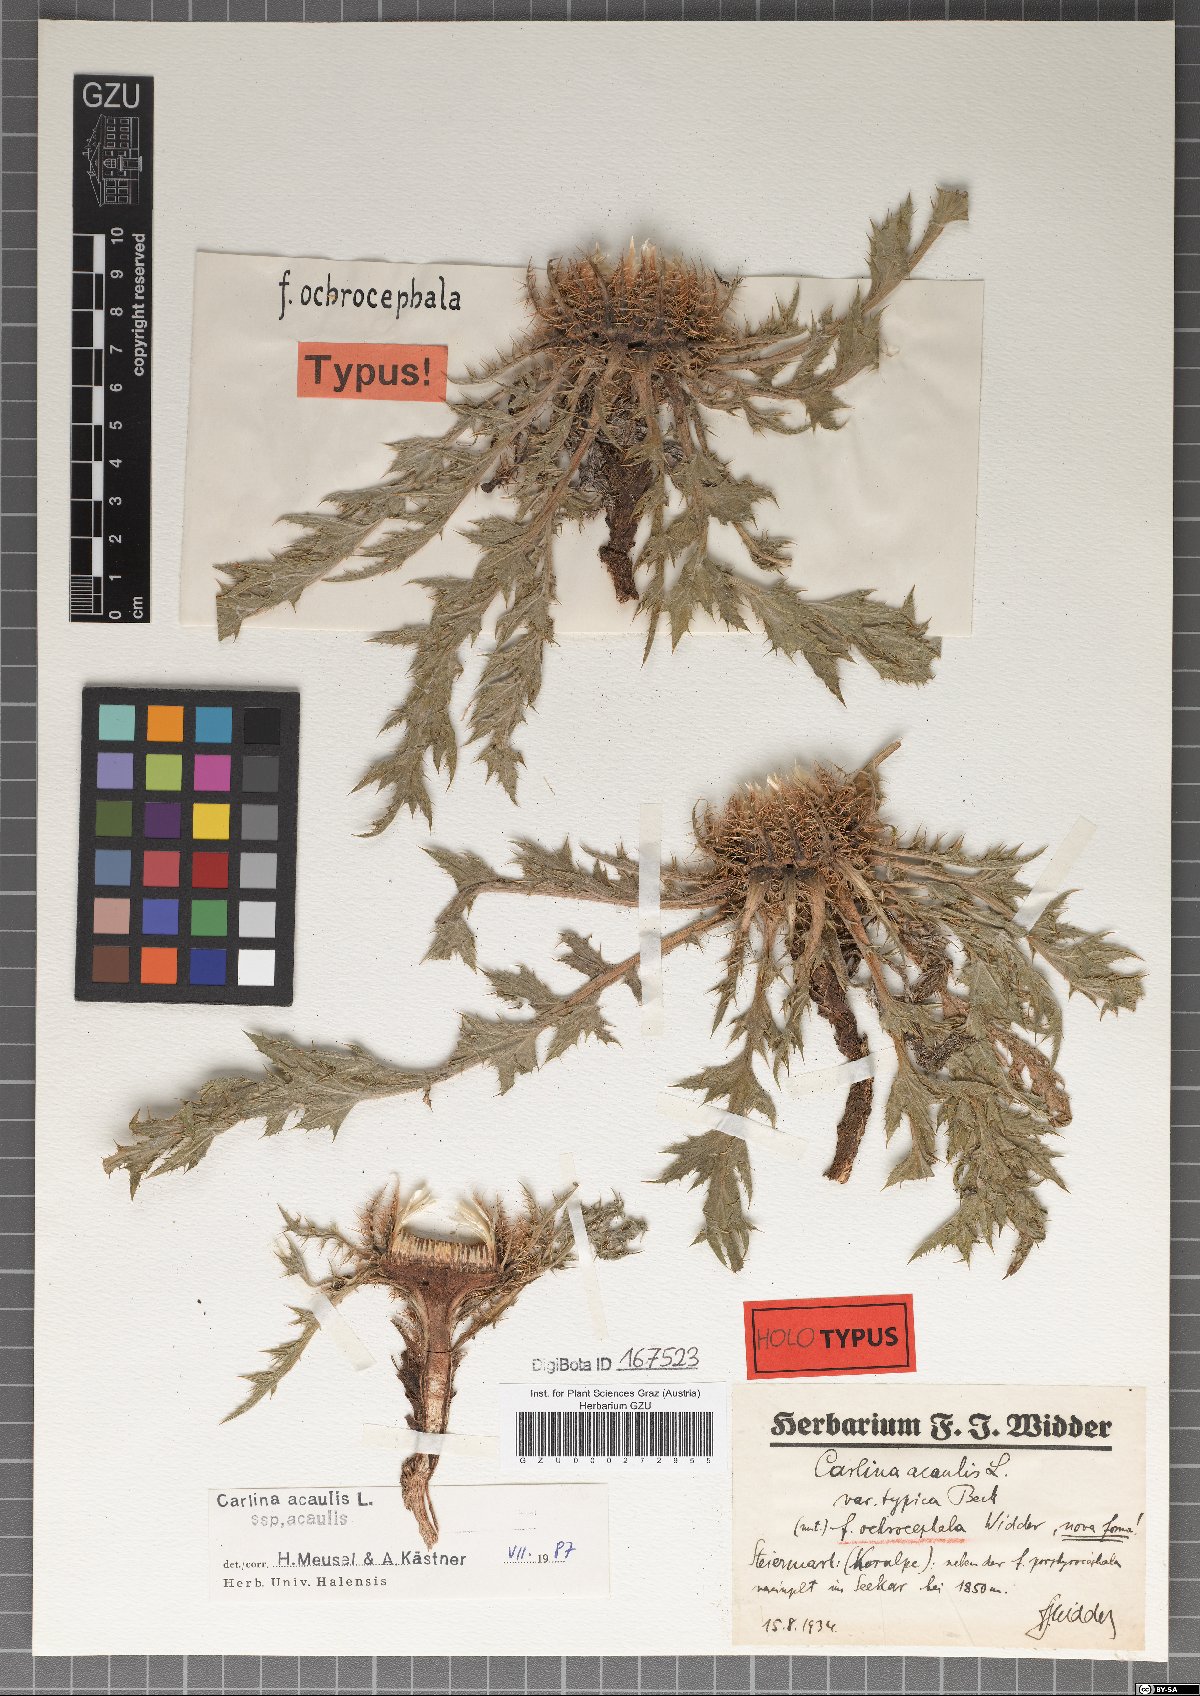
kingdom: Plantae
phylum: Tracheophyta
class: Magnoliopsida
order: Asterales
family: Asteraceae
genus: Carlina
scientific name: Carlina acaulis
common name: Stemless carline thistle
